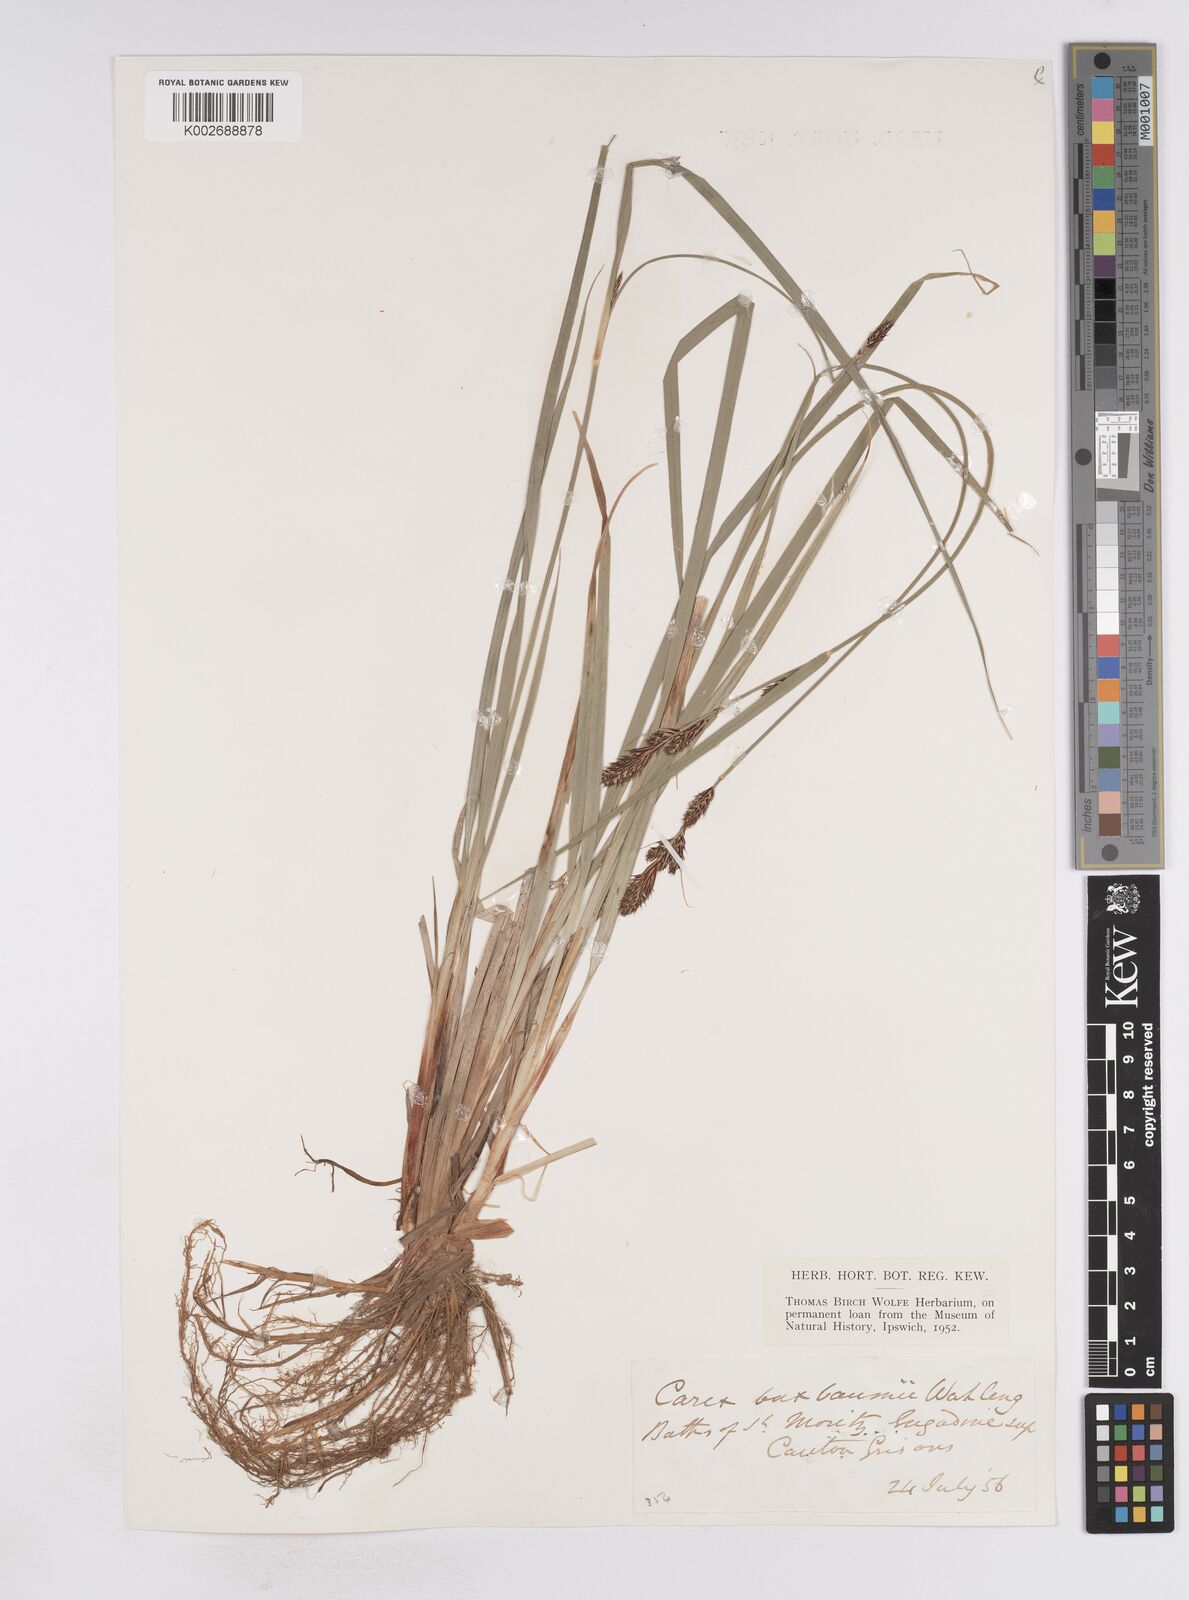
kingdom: Plantae
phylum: Tracheophyta
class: Liliopsida
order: Poales
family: Cyperaceae
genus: Carex
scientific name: Carex buxbaumii
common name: Club sedge
